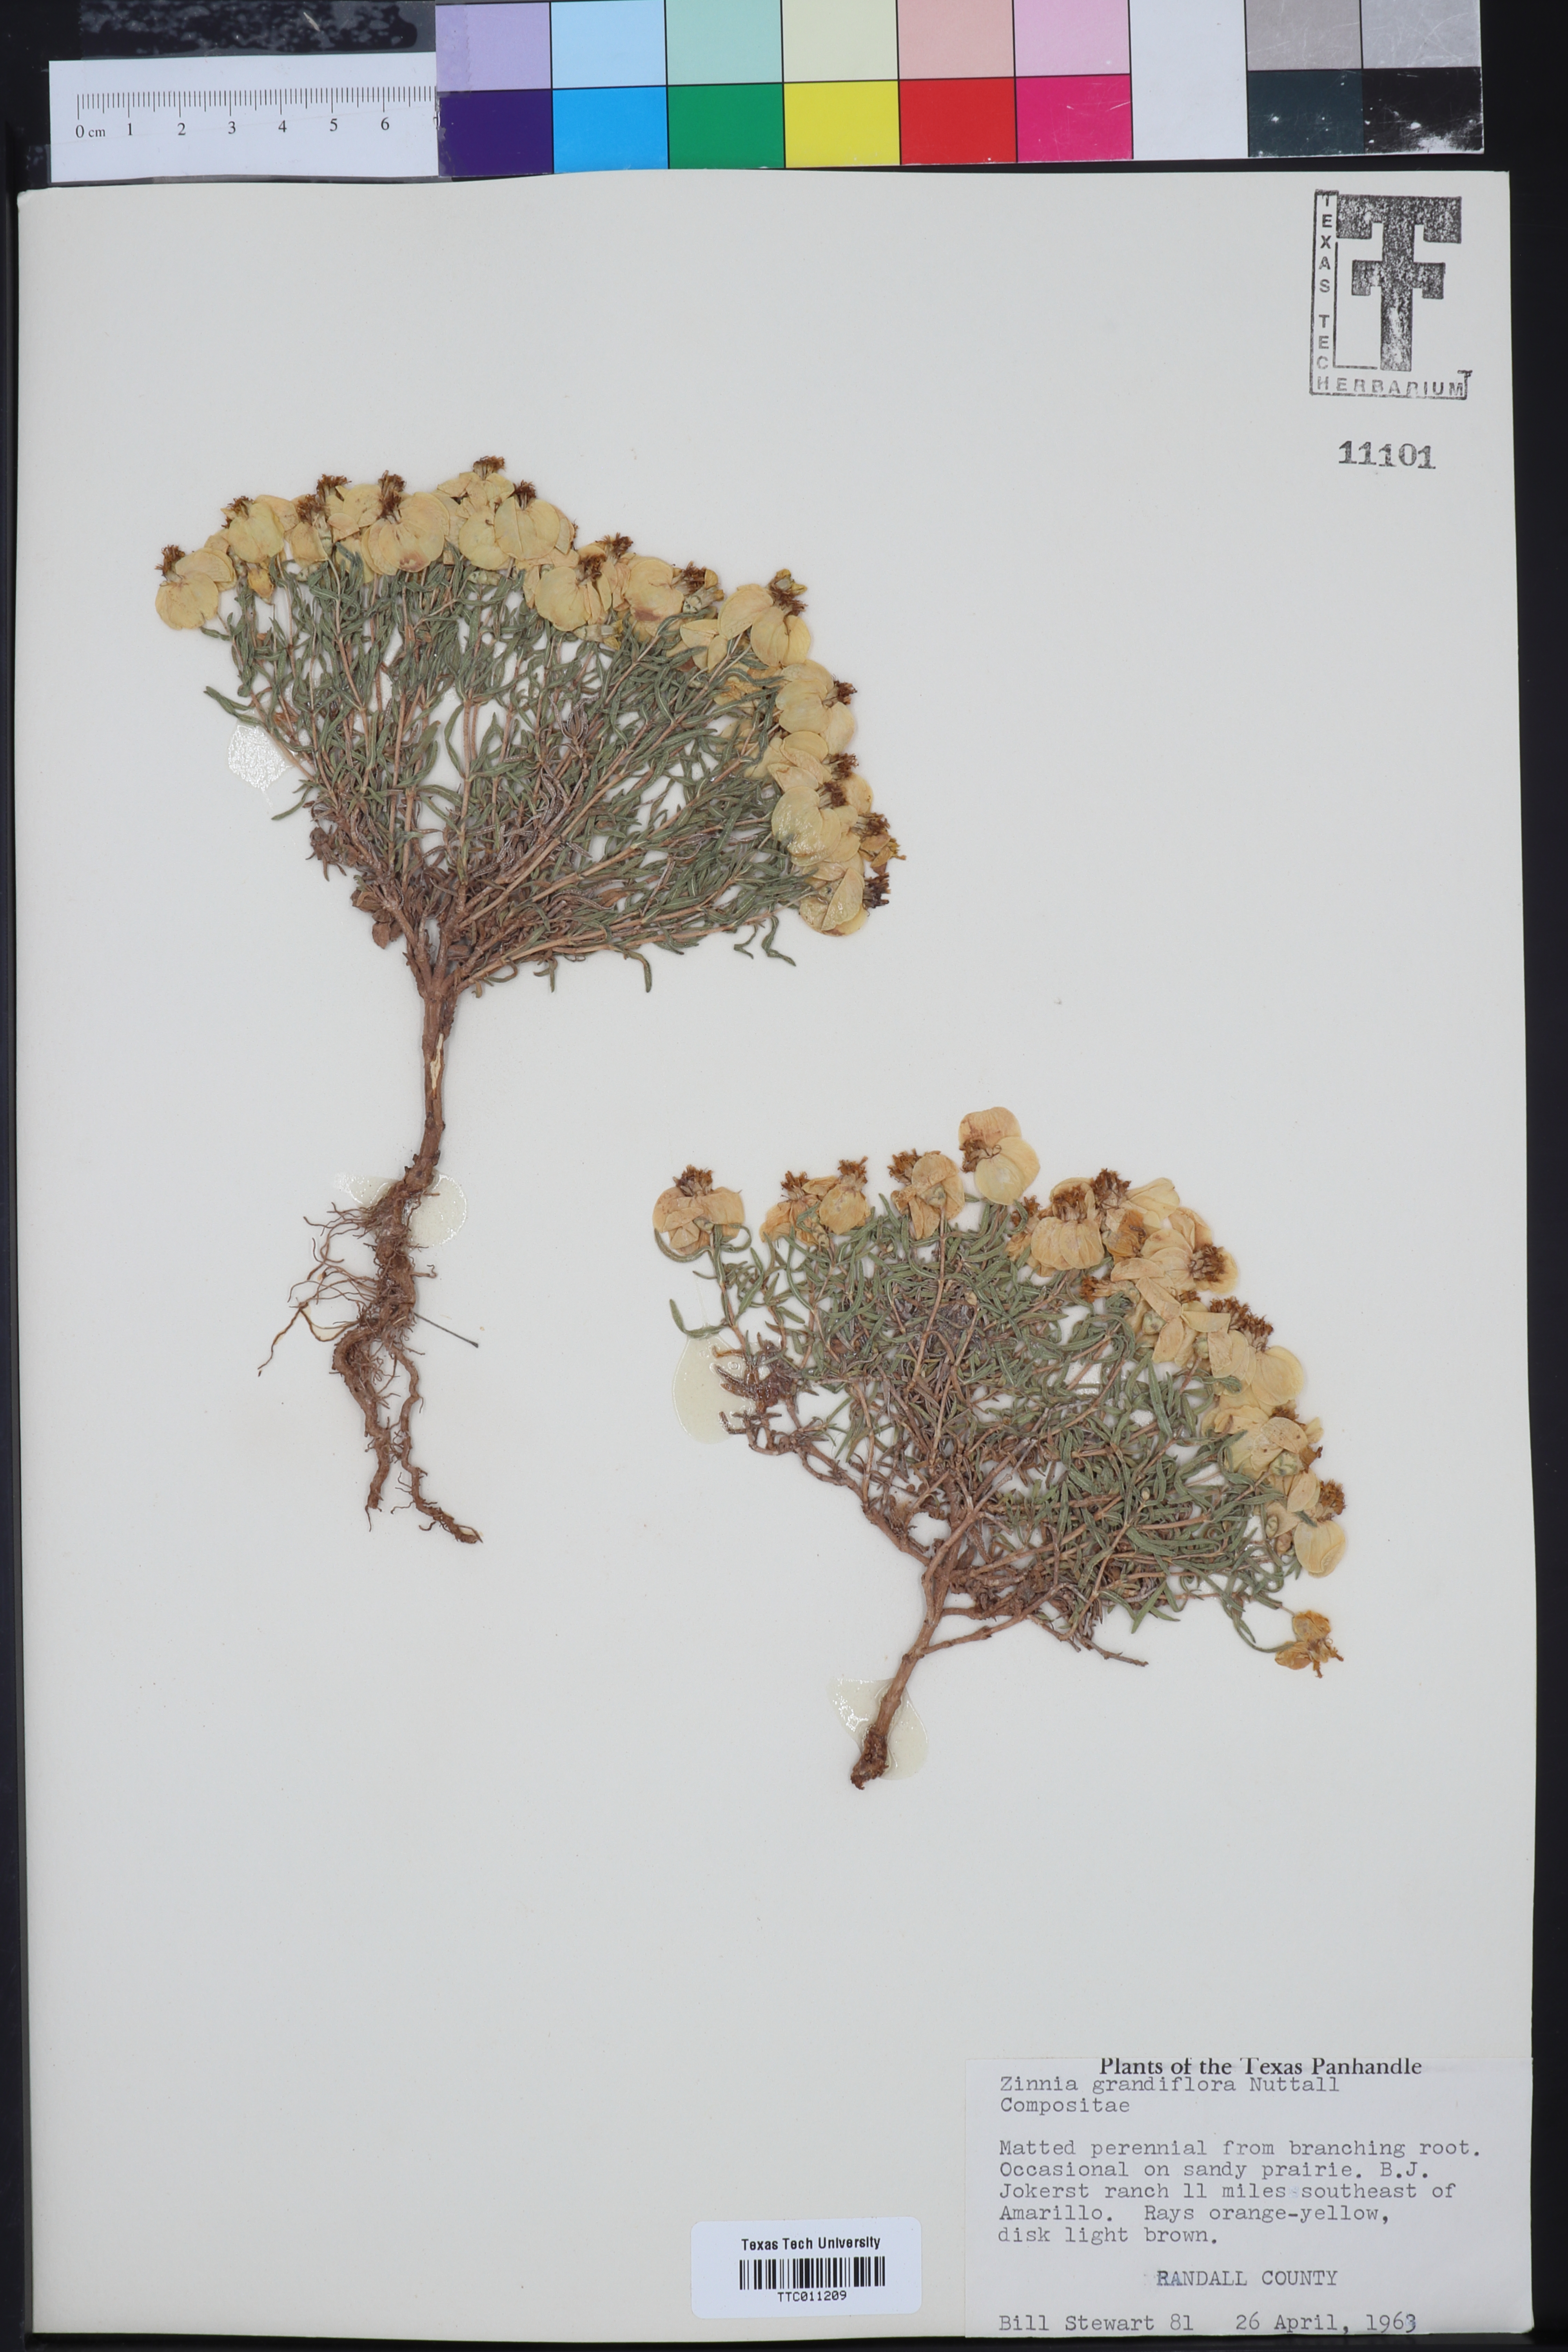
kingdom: Plantae
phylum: Tracheophyta
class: Magnoliopsida
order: Asterales
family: Asteraceae
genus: Zinnia
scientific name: Zinnia grandiflora
